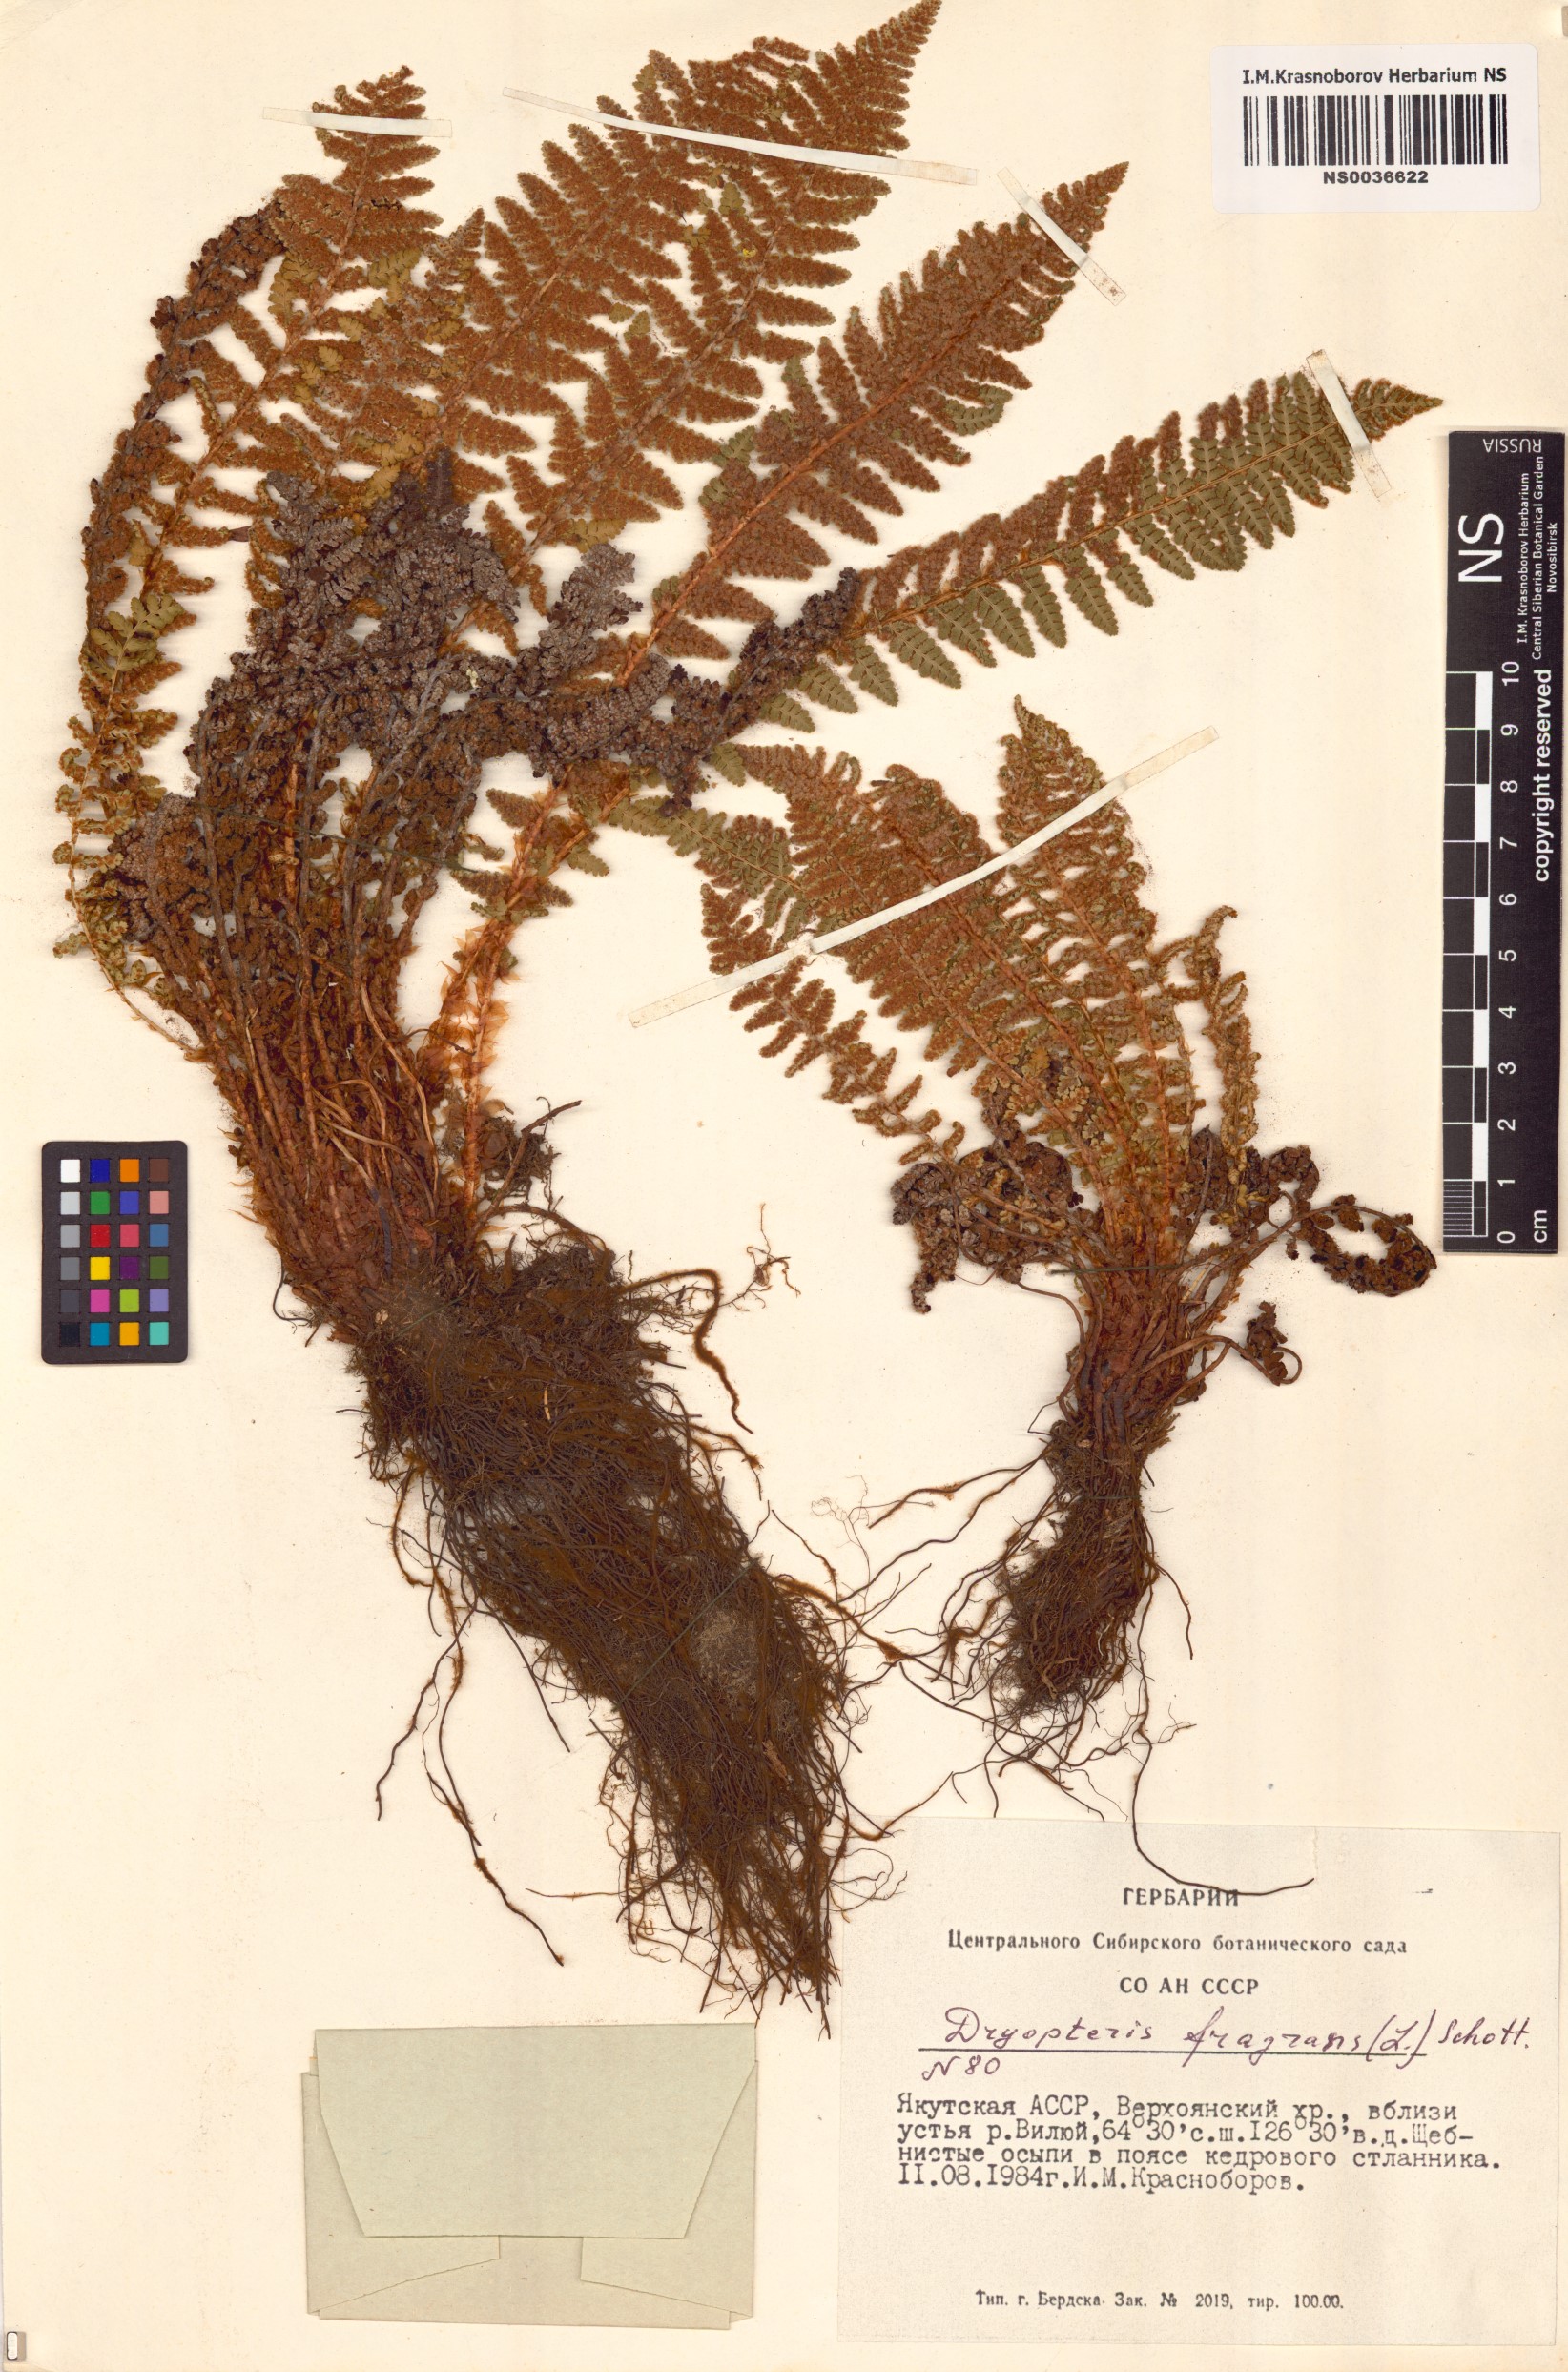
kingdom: Plantae
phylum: Tracheophyta
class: Polypodiopsida
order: Polypodiales
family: Dryopteridaceae
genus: Dryopteris
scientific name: Dryopteris fragrans
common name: Fragrant wood fern
